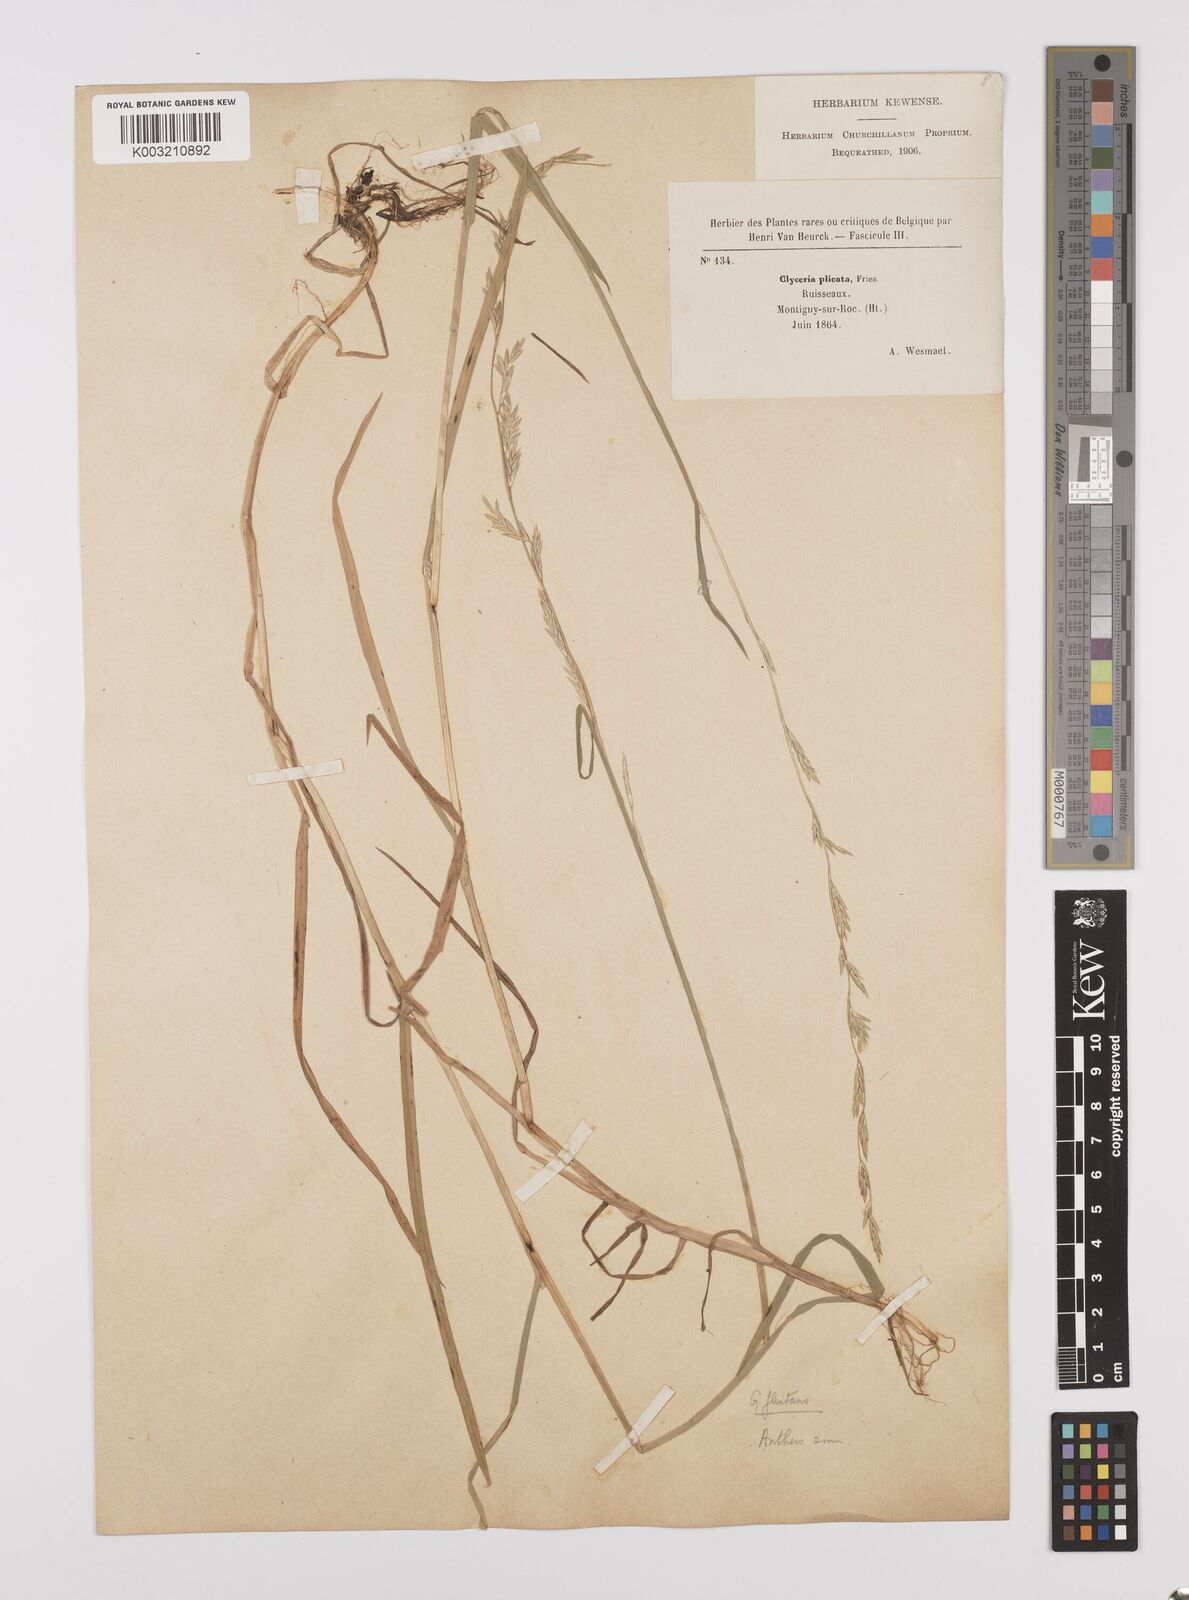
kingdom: Plantae
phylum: Tracheophyta
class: Liliopsida
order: Poales
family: Poaceae
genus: Glyceria
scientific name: Glyceria fluitans
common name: Floating sweet-grass
